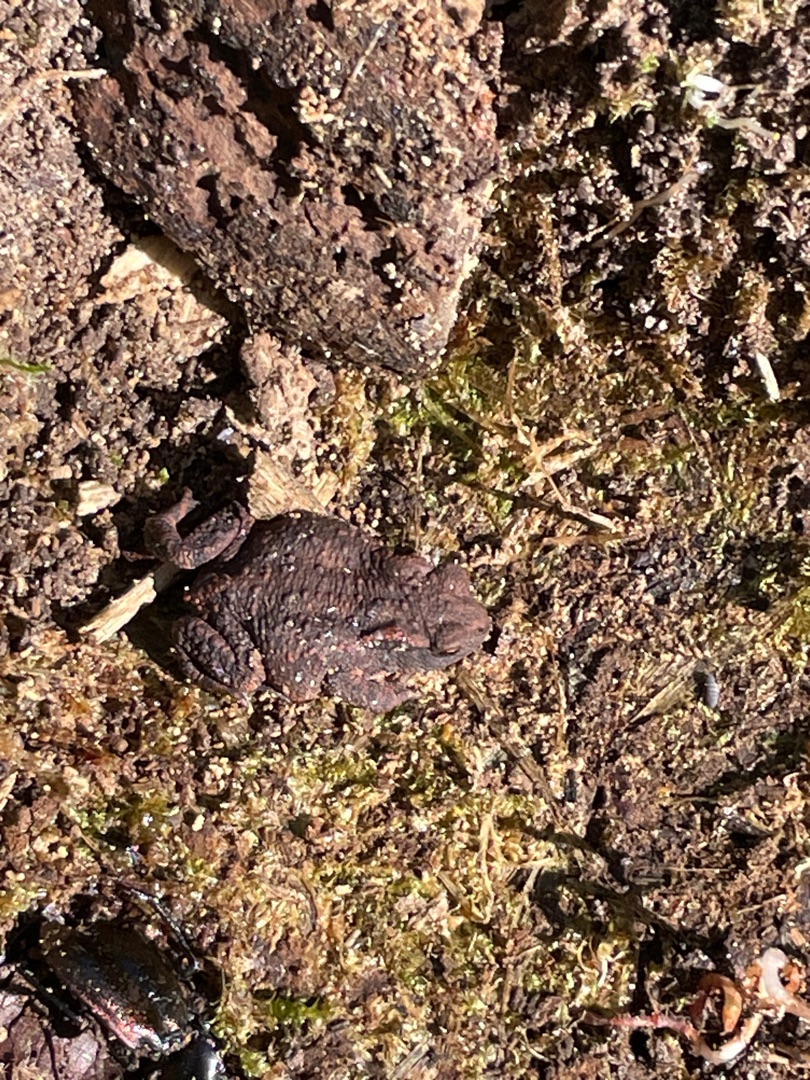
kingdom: Animalia
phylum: Chordata
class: Amphibia
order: Anura
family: Bufonidae
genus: Bufo
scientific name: Bufo bufo
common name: Skrubtudse
